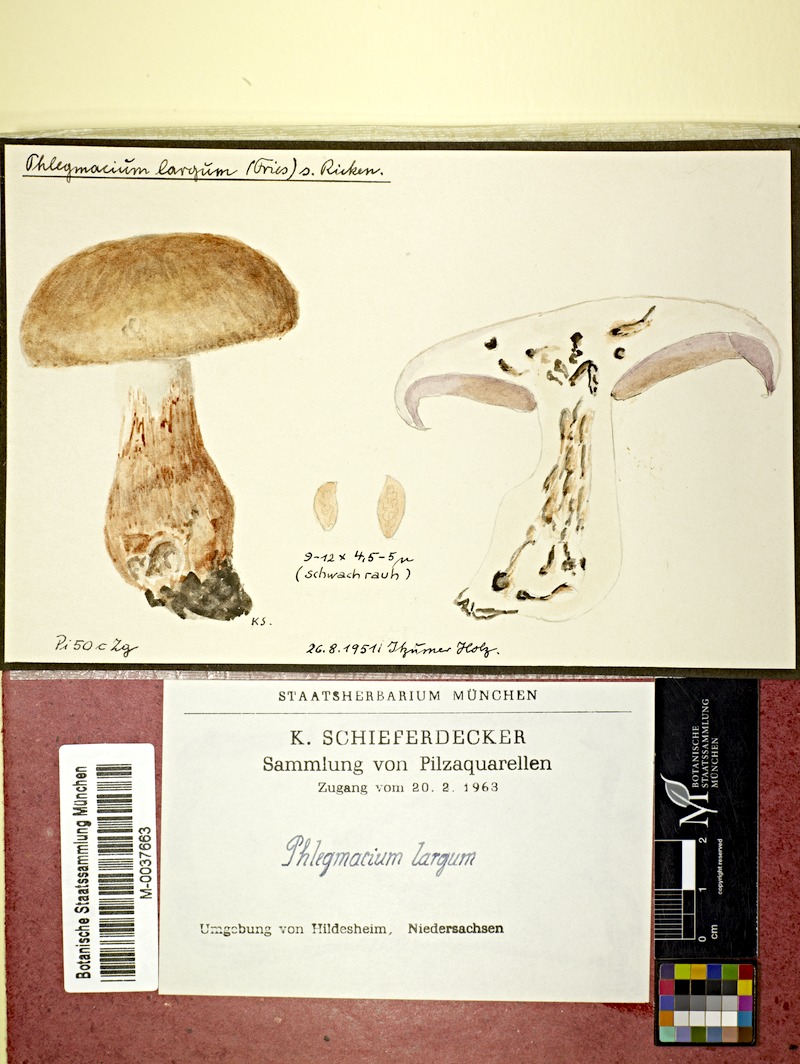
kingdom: Fungi
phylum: Basidiomycota
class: Agaricomycetes
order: Agaricales
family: Cortinariaceae
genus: Cortinarius
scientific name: Cortinarius largus
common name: Big-bellied webcap
